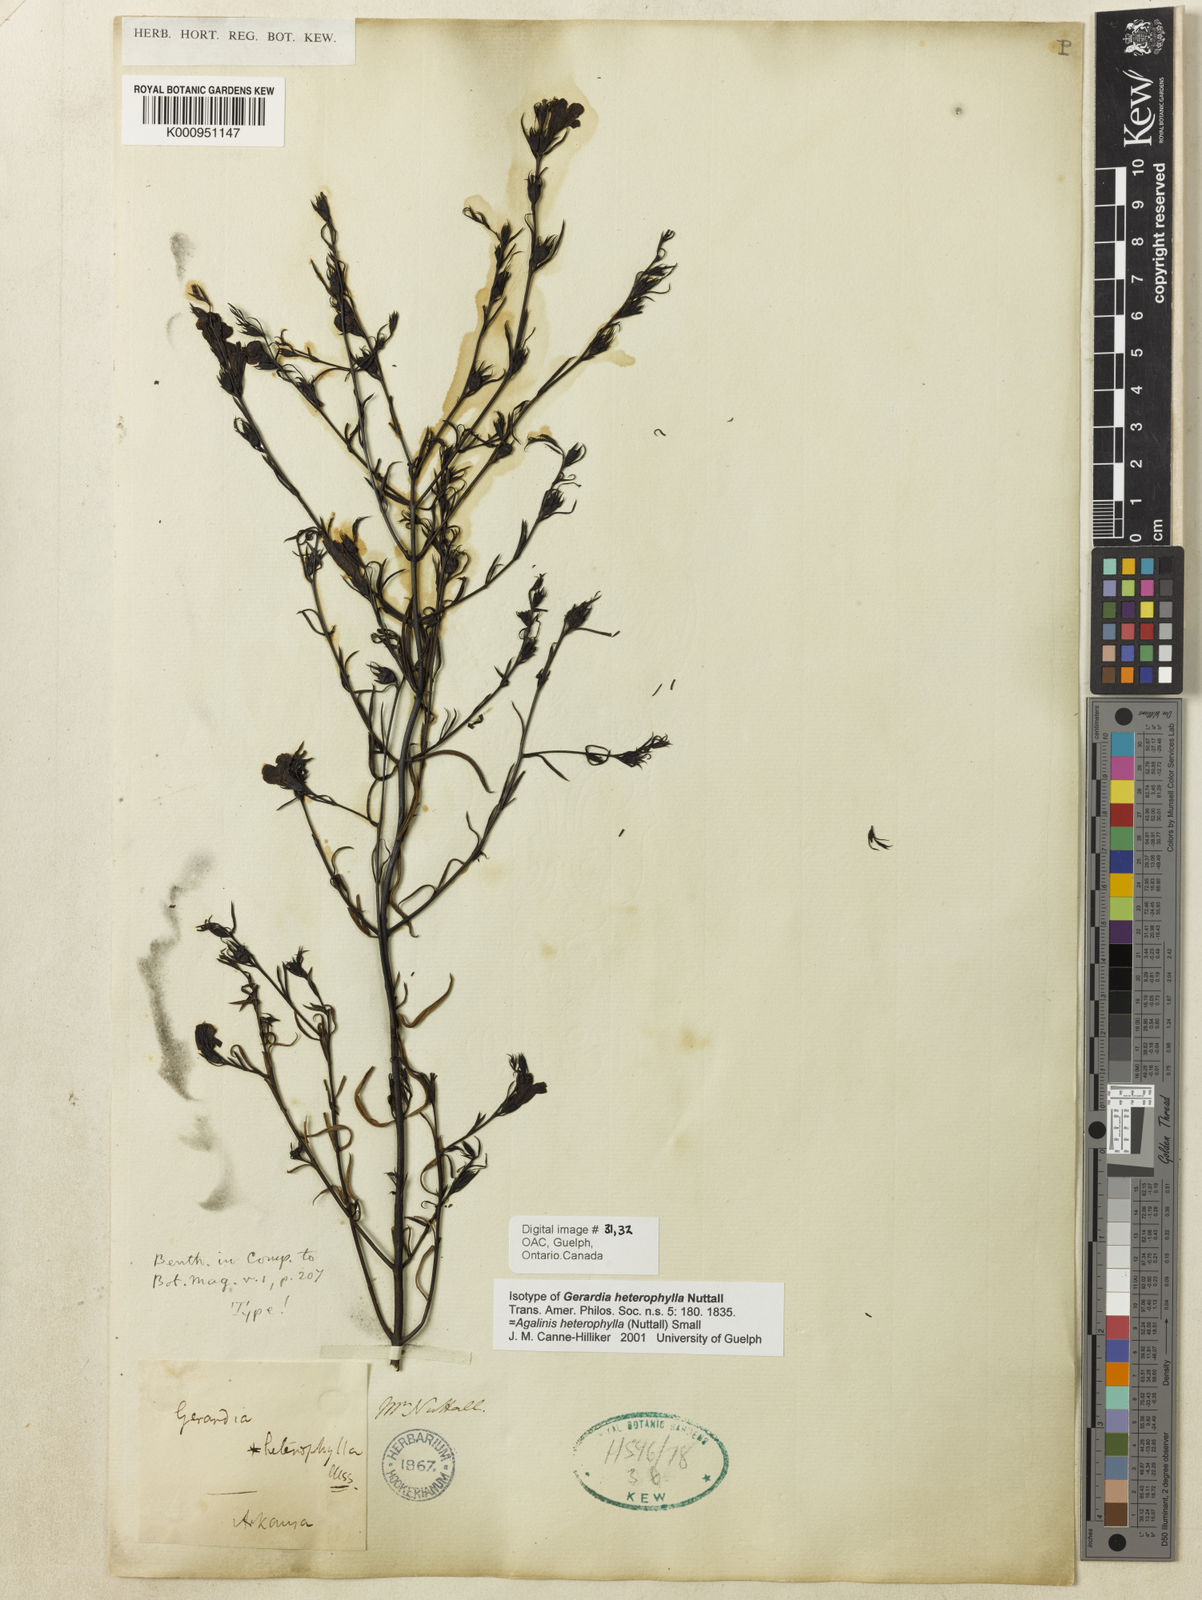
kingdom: Plantae
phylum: Tracheophyta
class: Magnoliopsida
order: Lamiales
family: Orobanchaceae
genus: Agalinis
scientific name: Agalinis heterophylla
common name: Prairie agalinis
